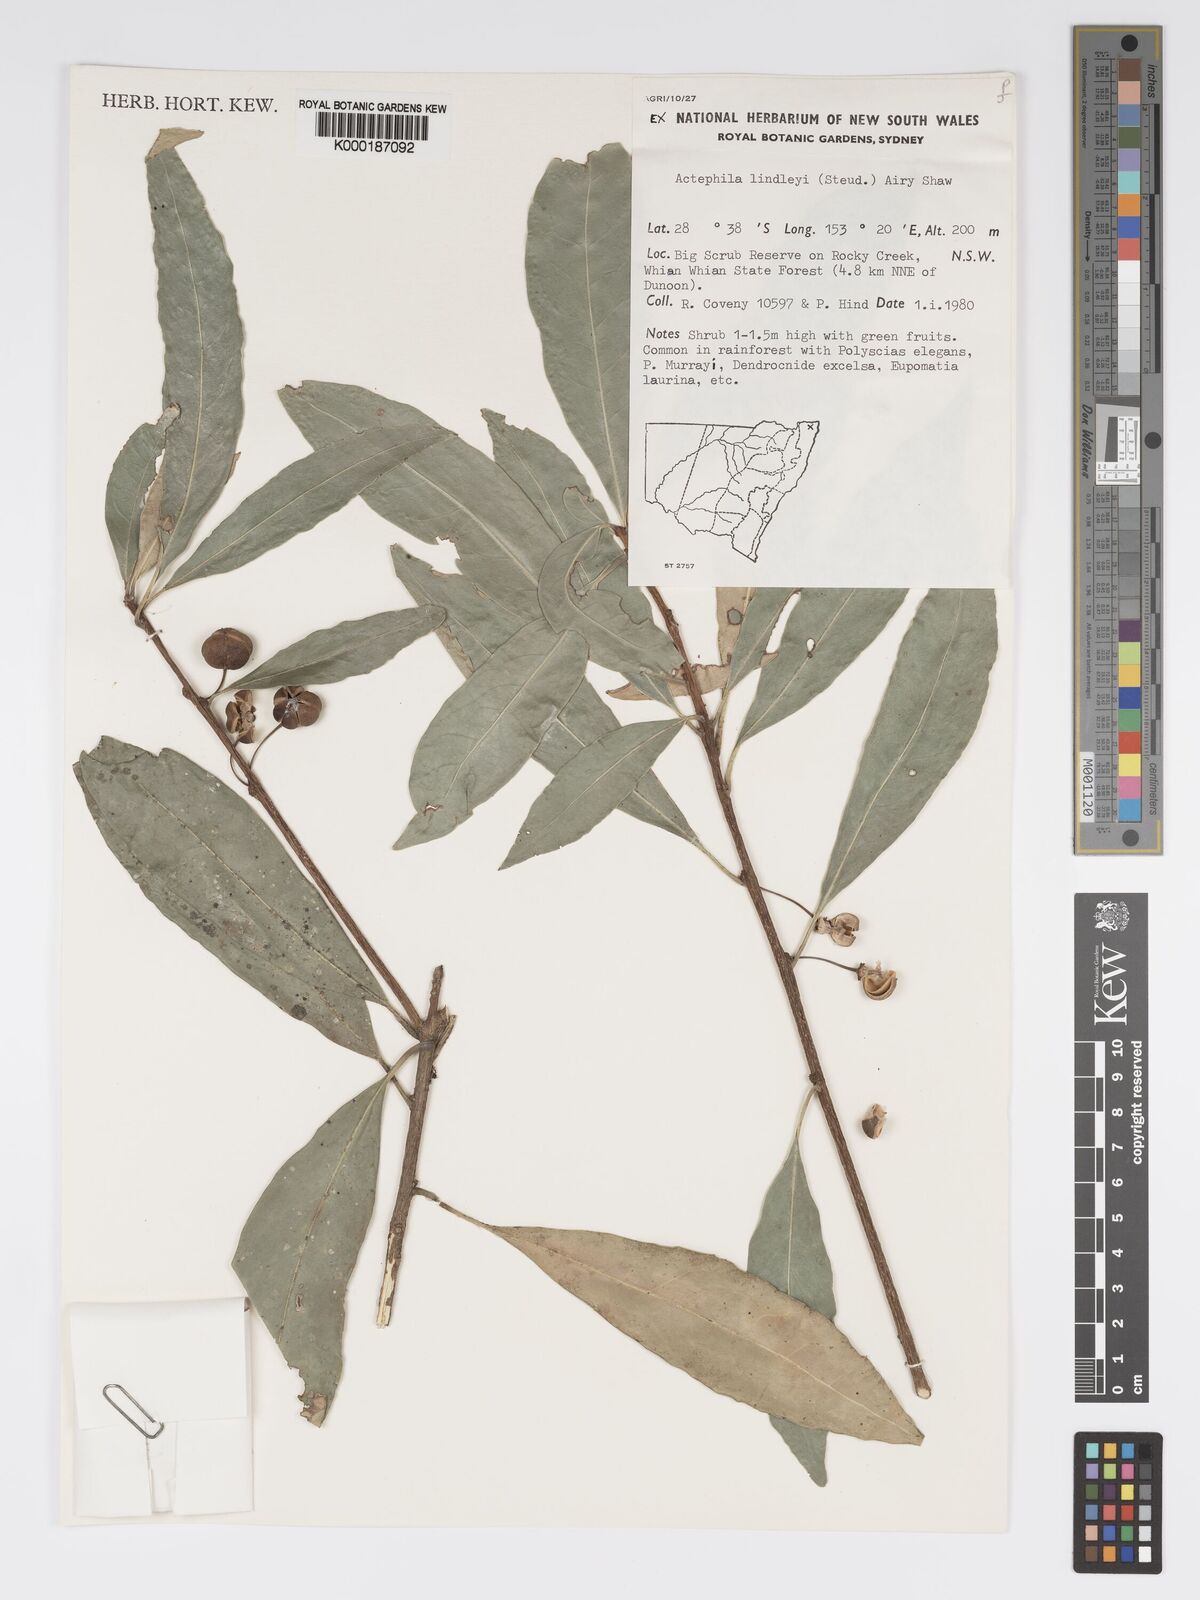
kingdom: Plantae
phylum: Tracheophyta
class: Magnoliopsida
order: Malpighiales
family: Phyllanthaceae
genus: Actephila
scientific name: Actephila lindleyi
